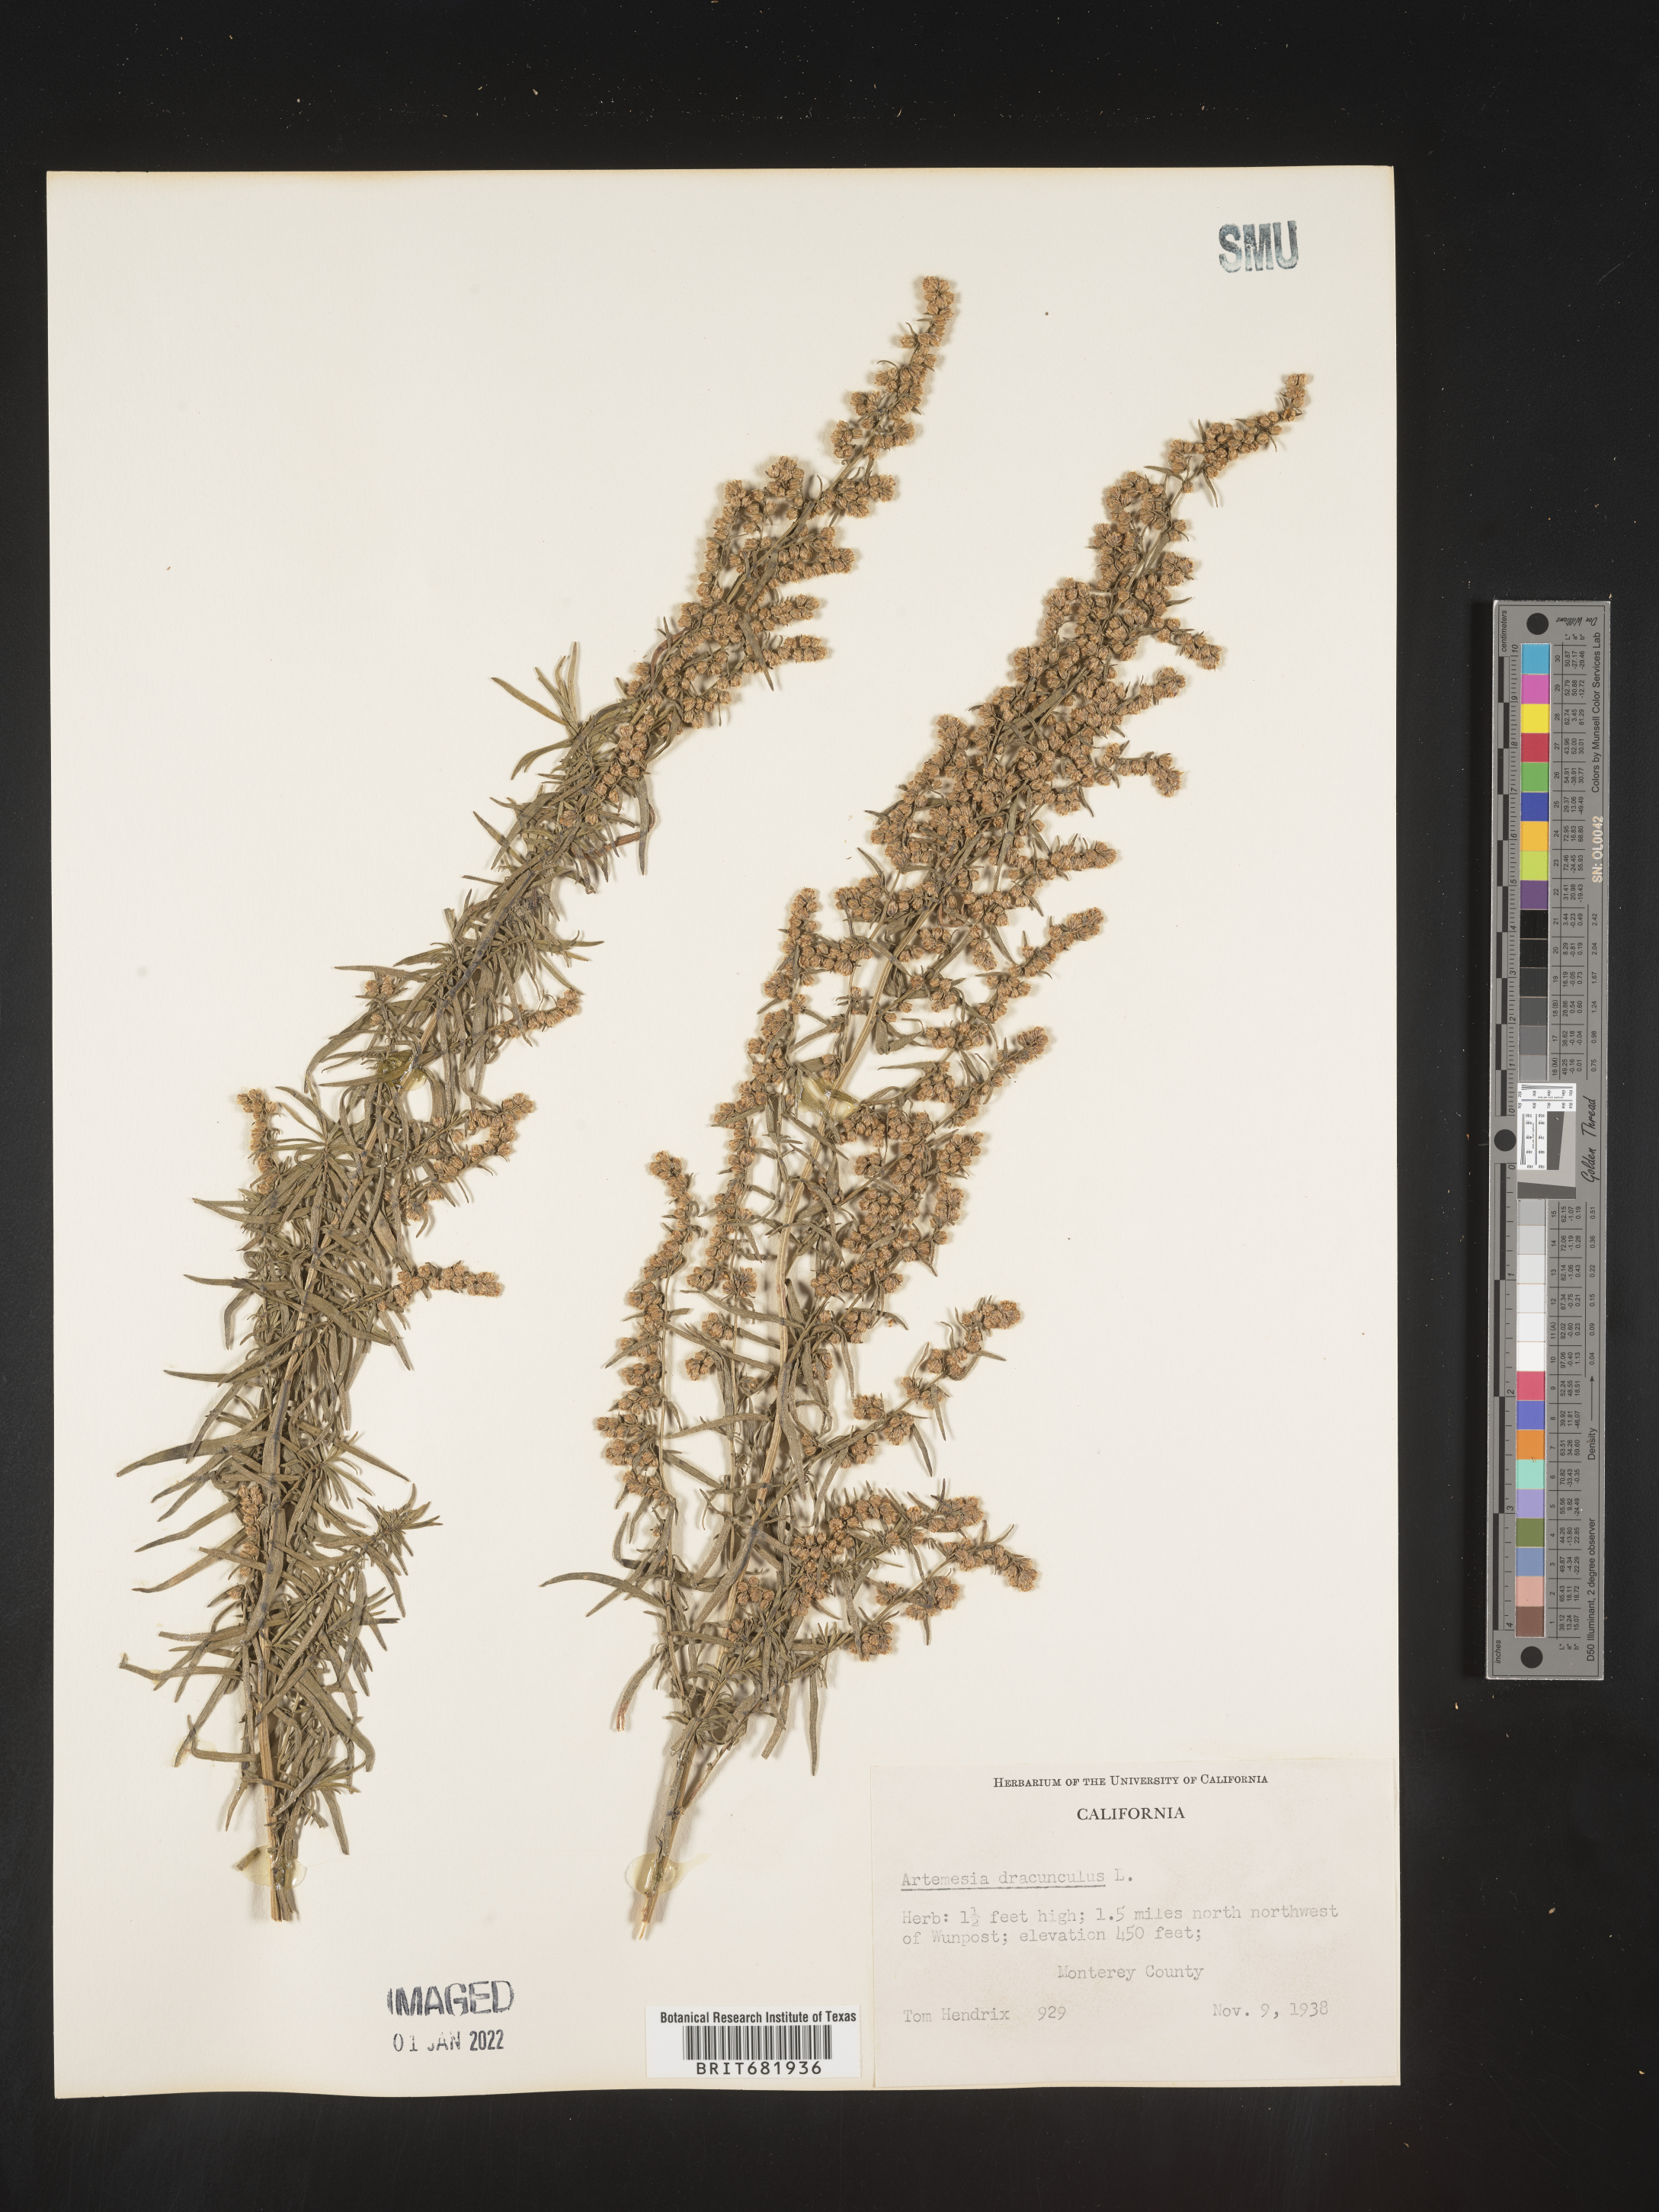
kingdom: Plantae
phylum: Tracheophyta
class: Magnoliopsida
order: Asterales
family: Asteraceae
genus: Artemisia
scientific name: Artemisia dracunculus
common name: Tarragon
